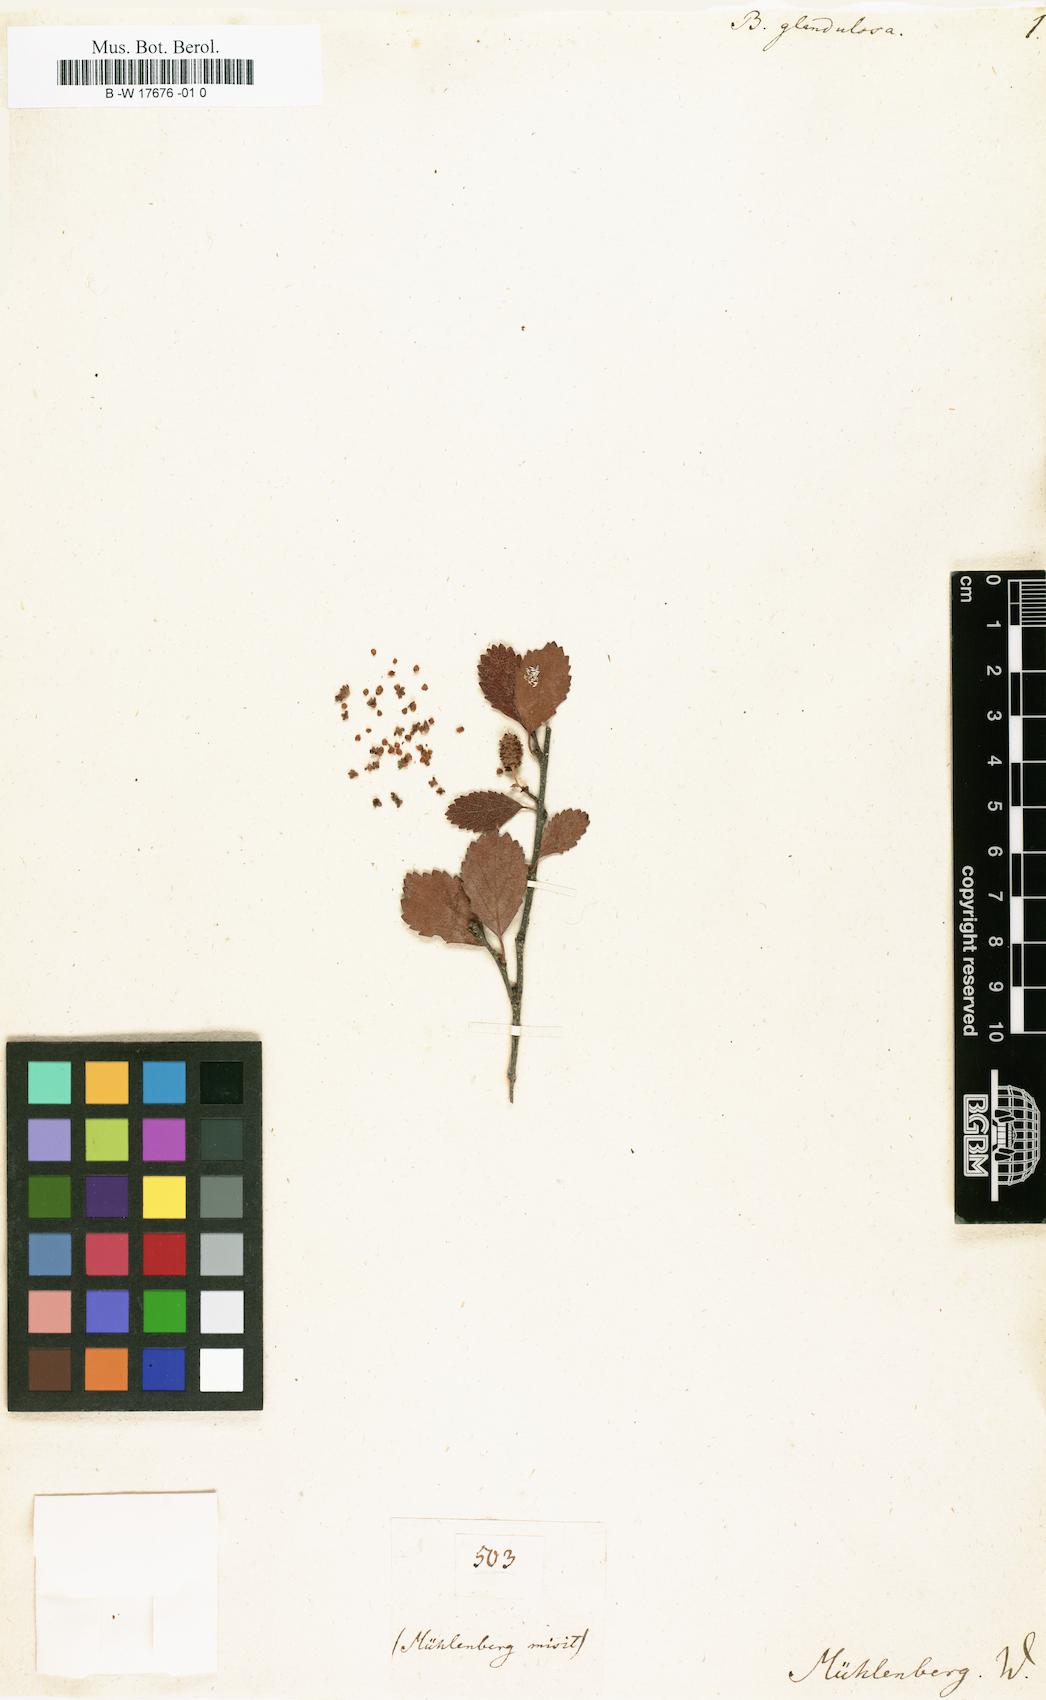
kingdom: Plantae
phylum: Tracheophyta
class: Magnoliopsida
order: Fagales
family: Betulaceae
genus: Betula
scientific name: Betula glandulosa
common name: Dwarf birch
